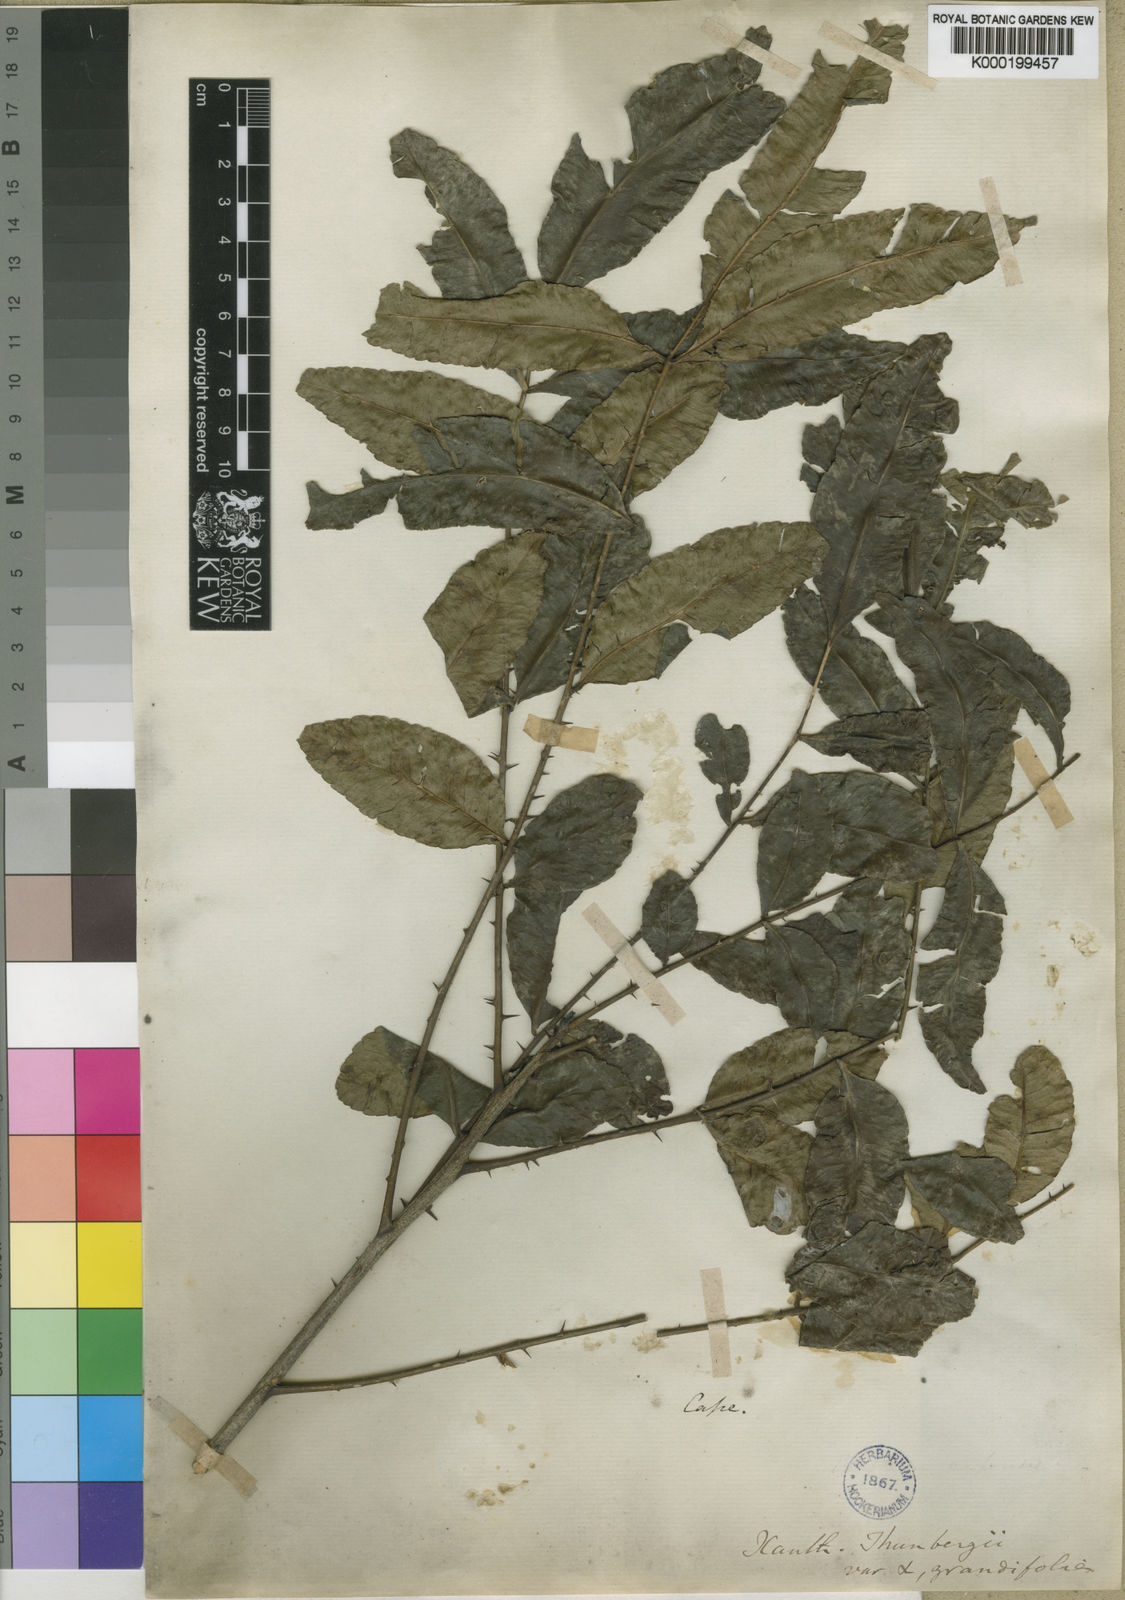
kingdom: Plantae
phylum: Tracheophyta
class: Magnoliopsida
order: Sapindales
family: Rutaceae
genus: Zanthoxylum
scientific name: Zanthoxylum davyi
